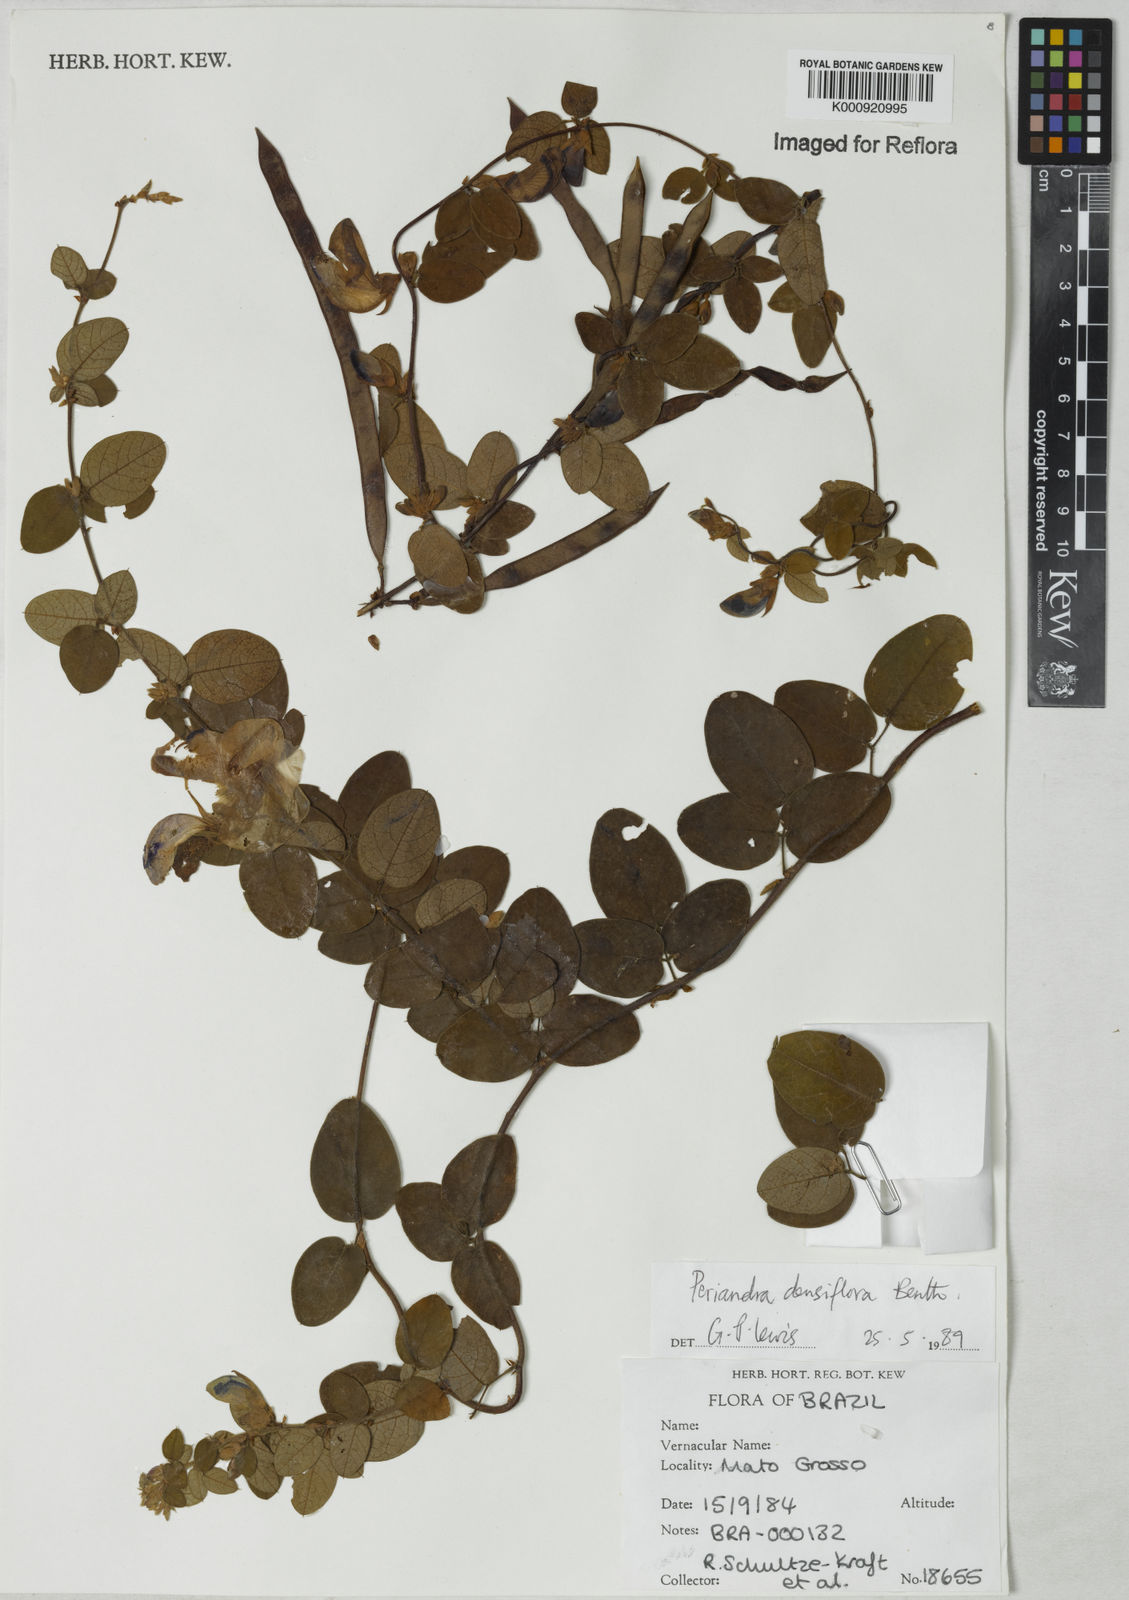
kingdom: Plantae
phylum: Tracheophyta
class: Magnoliopsida
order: Fabales
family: Fabaceae
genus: Periandra
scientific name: Periandra densiflora
